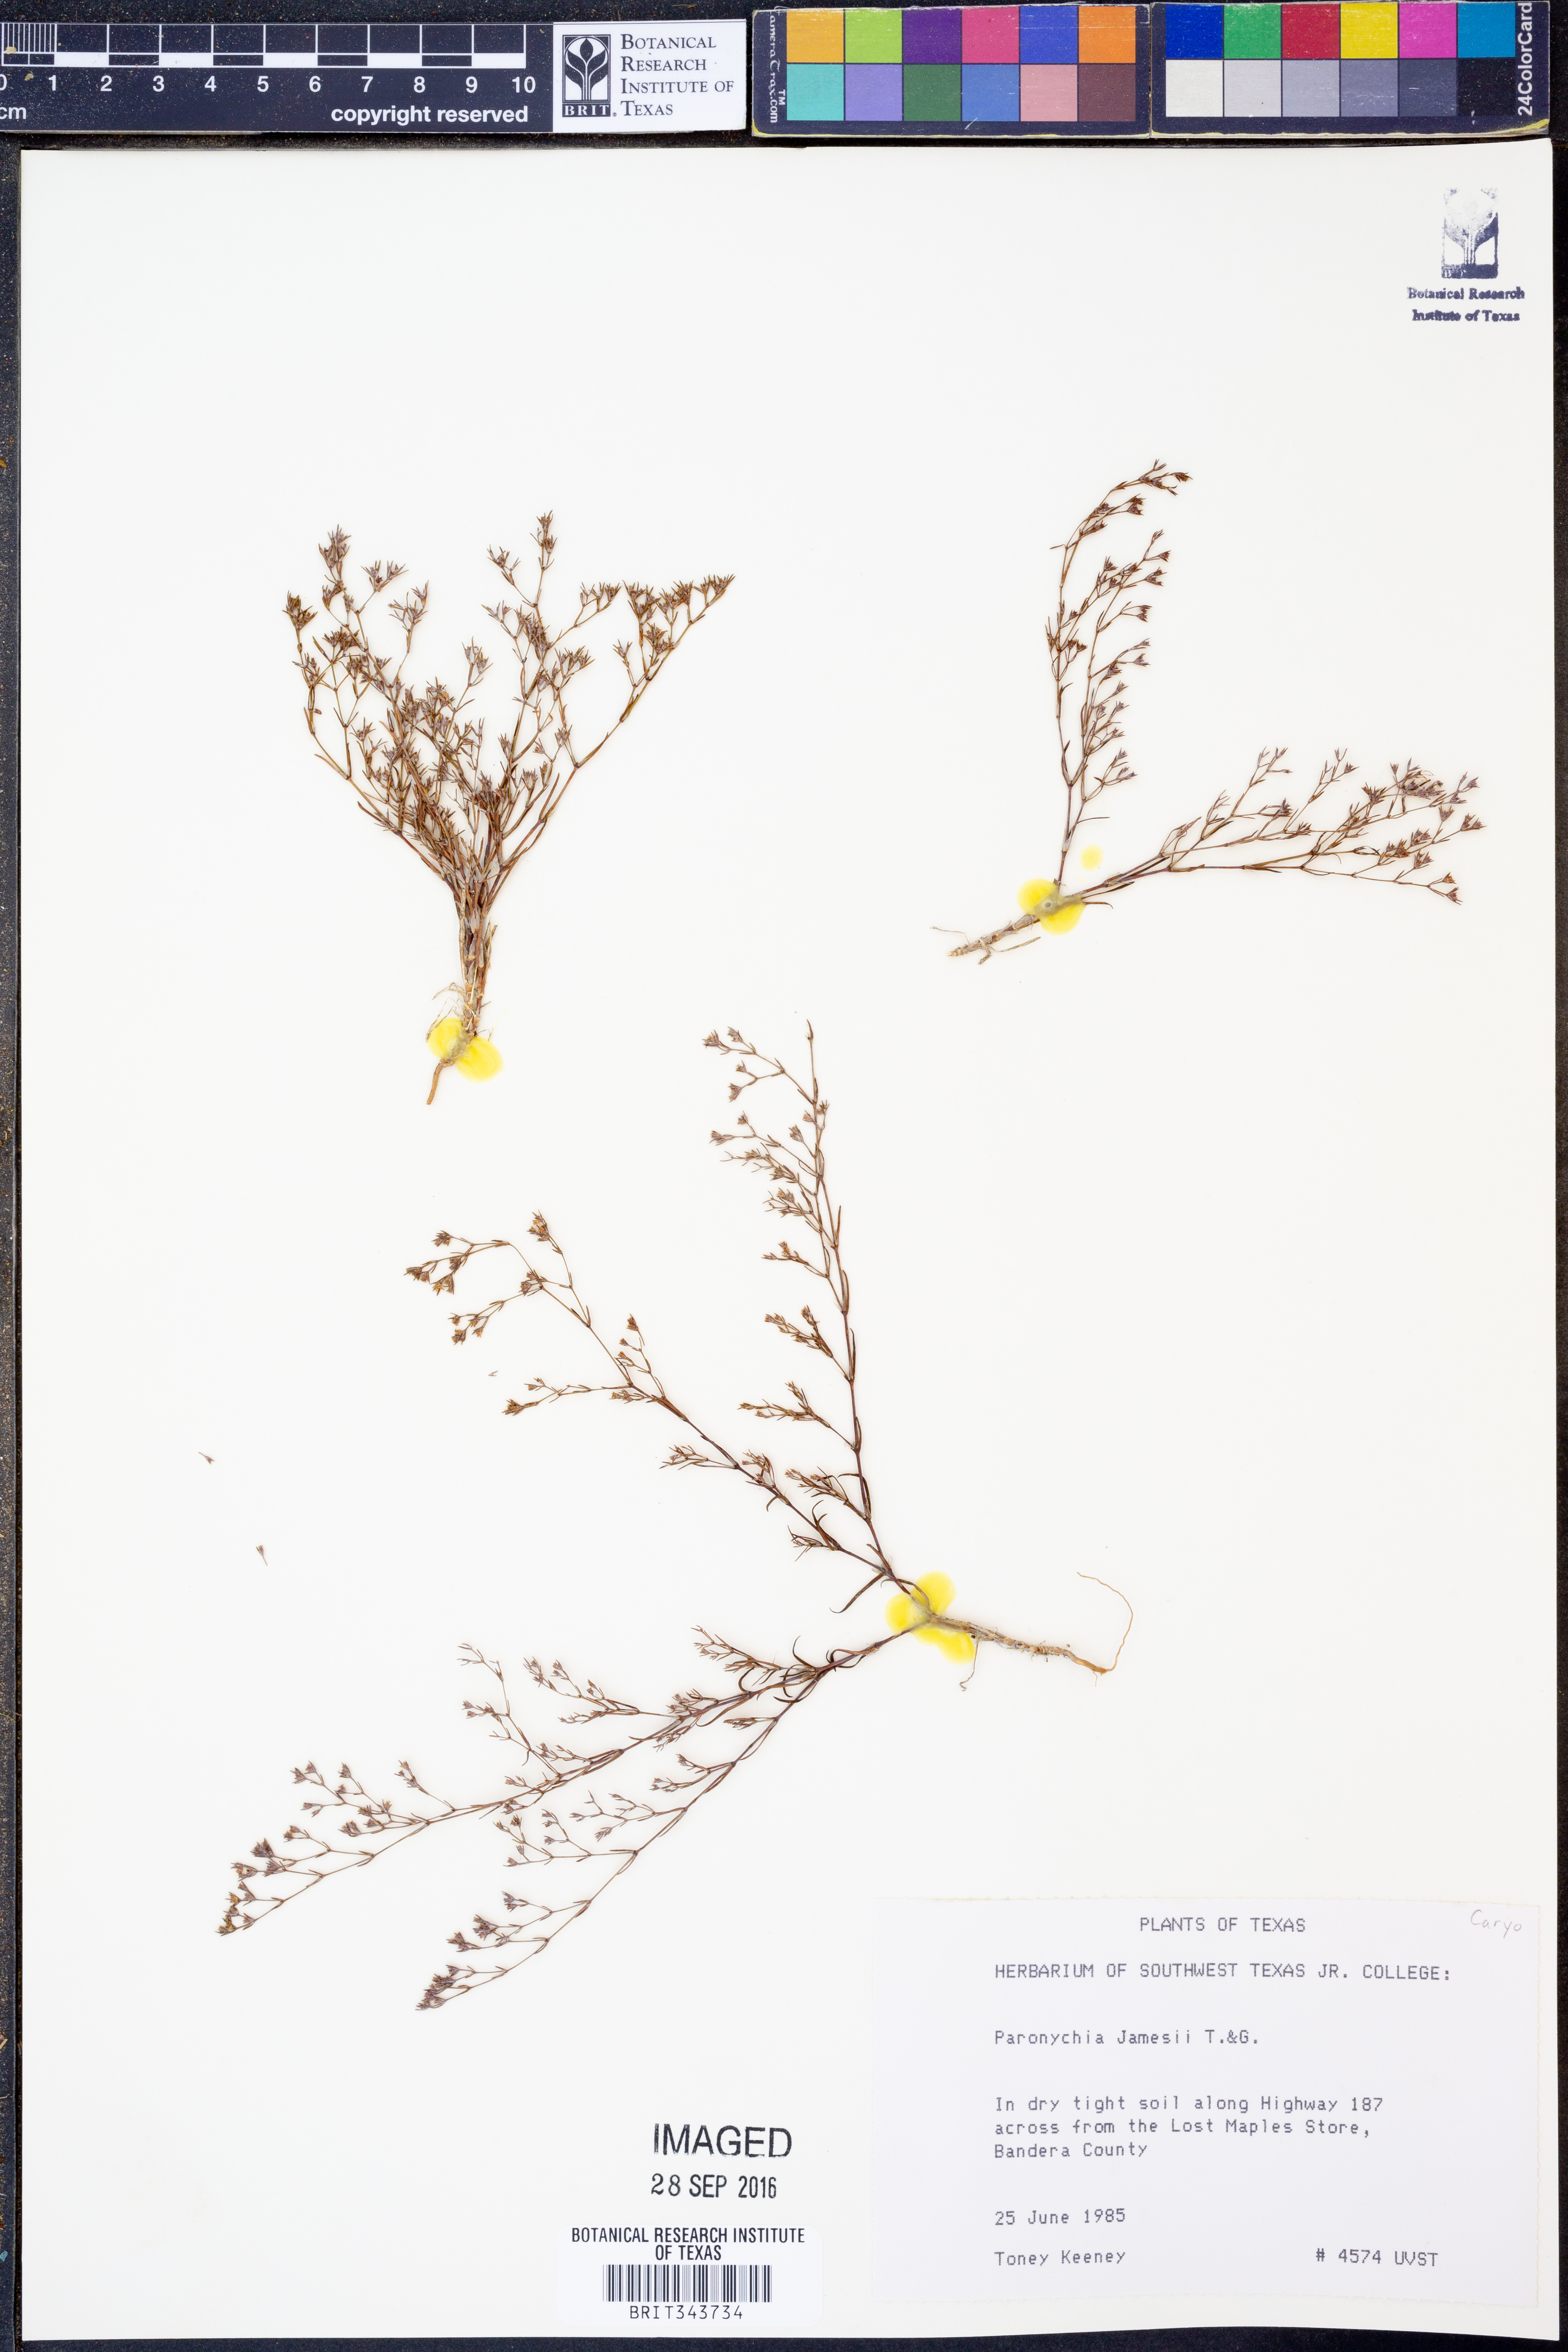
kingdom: Plantae
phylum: Tracheophyta
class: Magnoliopsida
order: Caryophyllales
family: Caryophyllaceae
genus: Paronychia
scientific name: Paronychia jamesii
